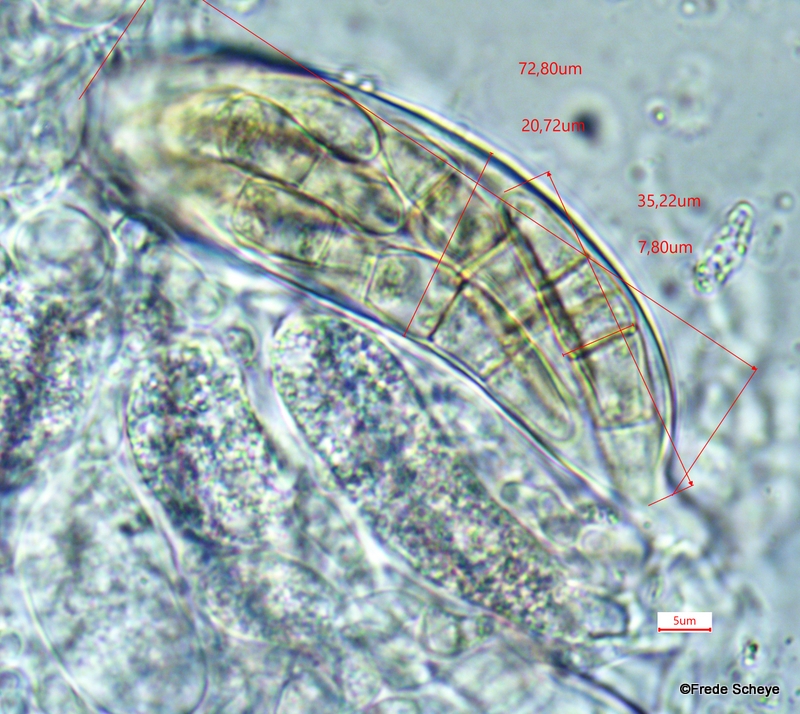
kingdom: Fungi
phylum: Ascomycota
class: Dothideomycetes
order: Pleosporales
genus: Rhopographus
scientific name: Rhopographus filicinus
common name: Bracken map
